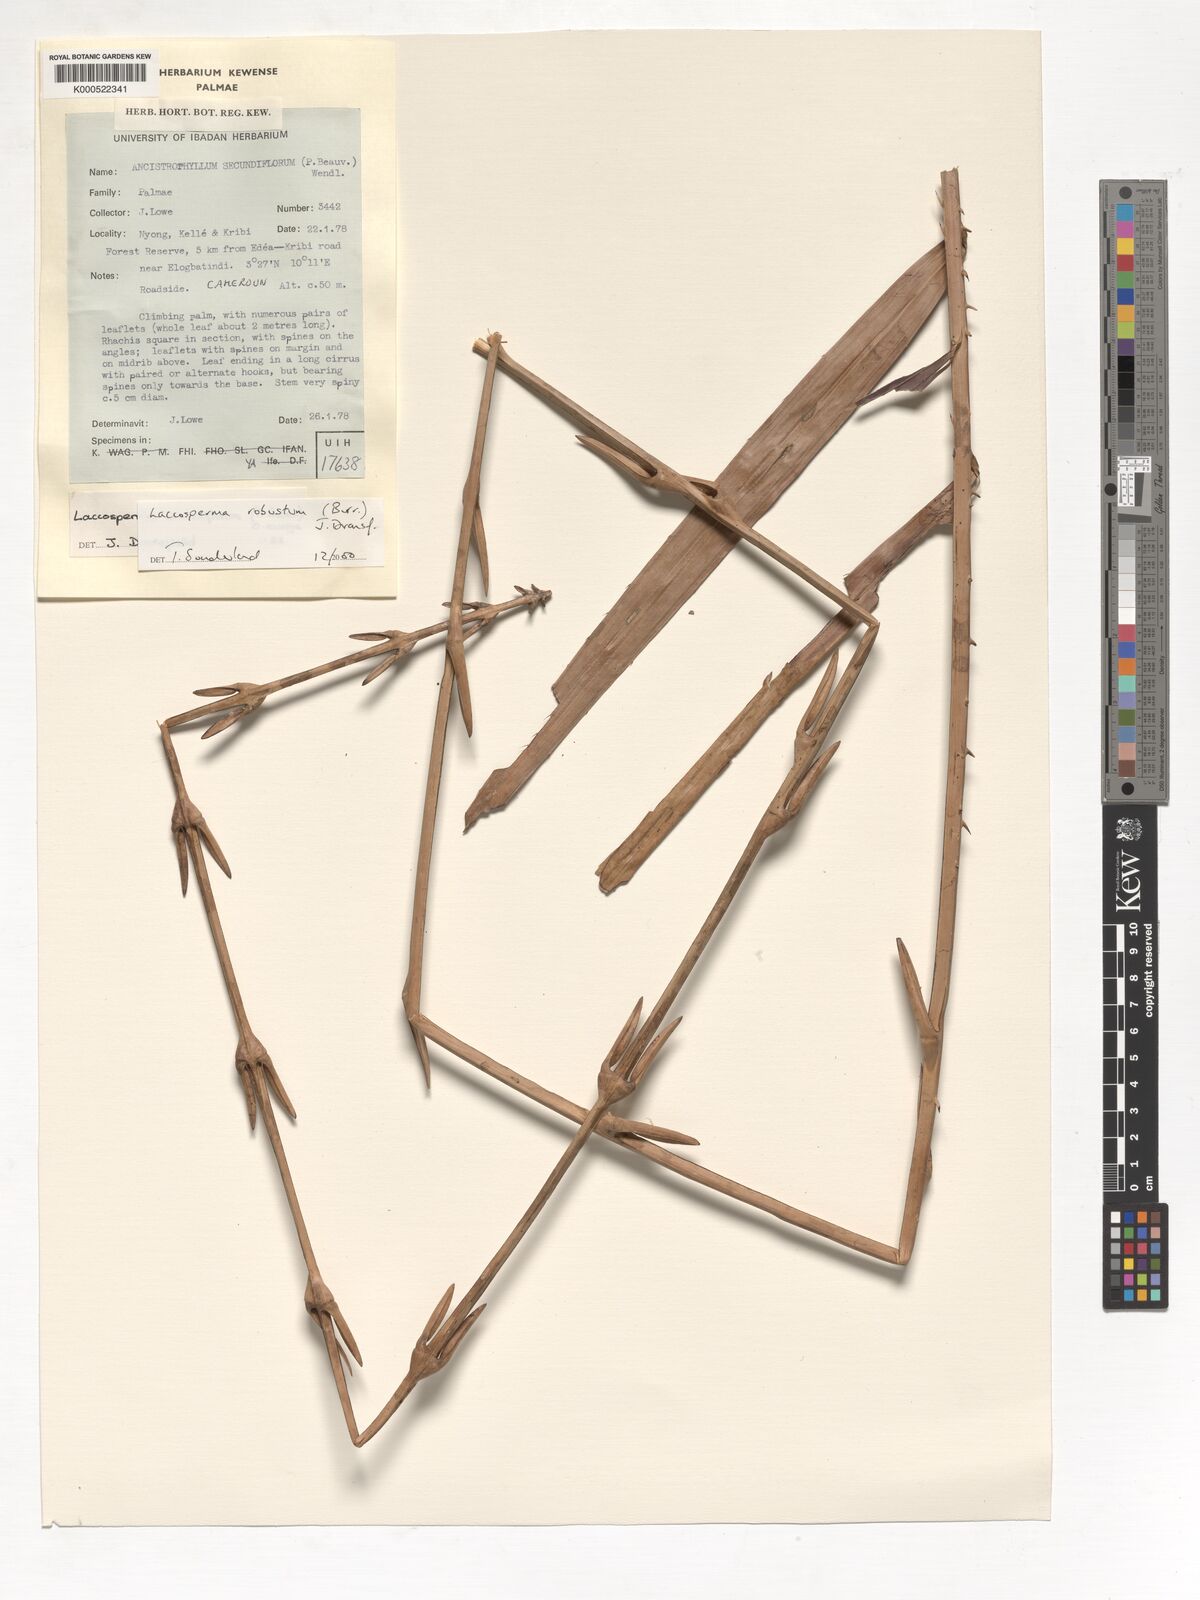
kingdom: Plantae
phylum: Tracheophyta
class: Liliopsida
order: Arecales
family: Arecaceae
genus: Laccosperma
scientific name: Laccosperma robustum
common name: Rattan
